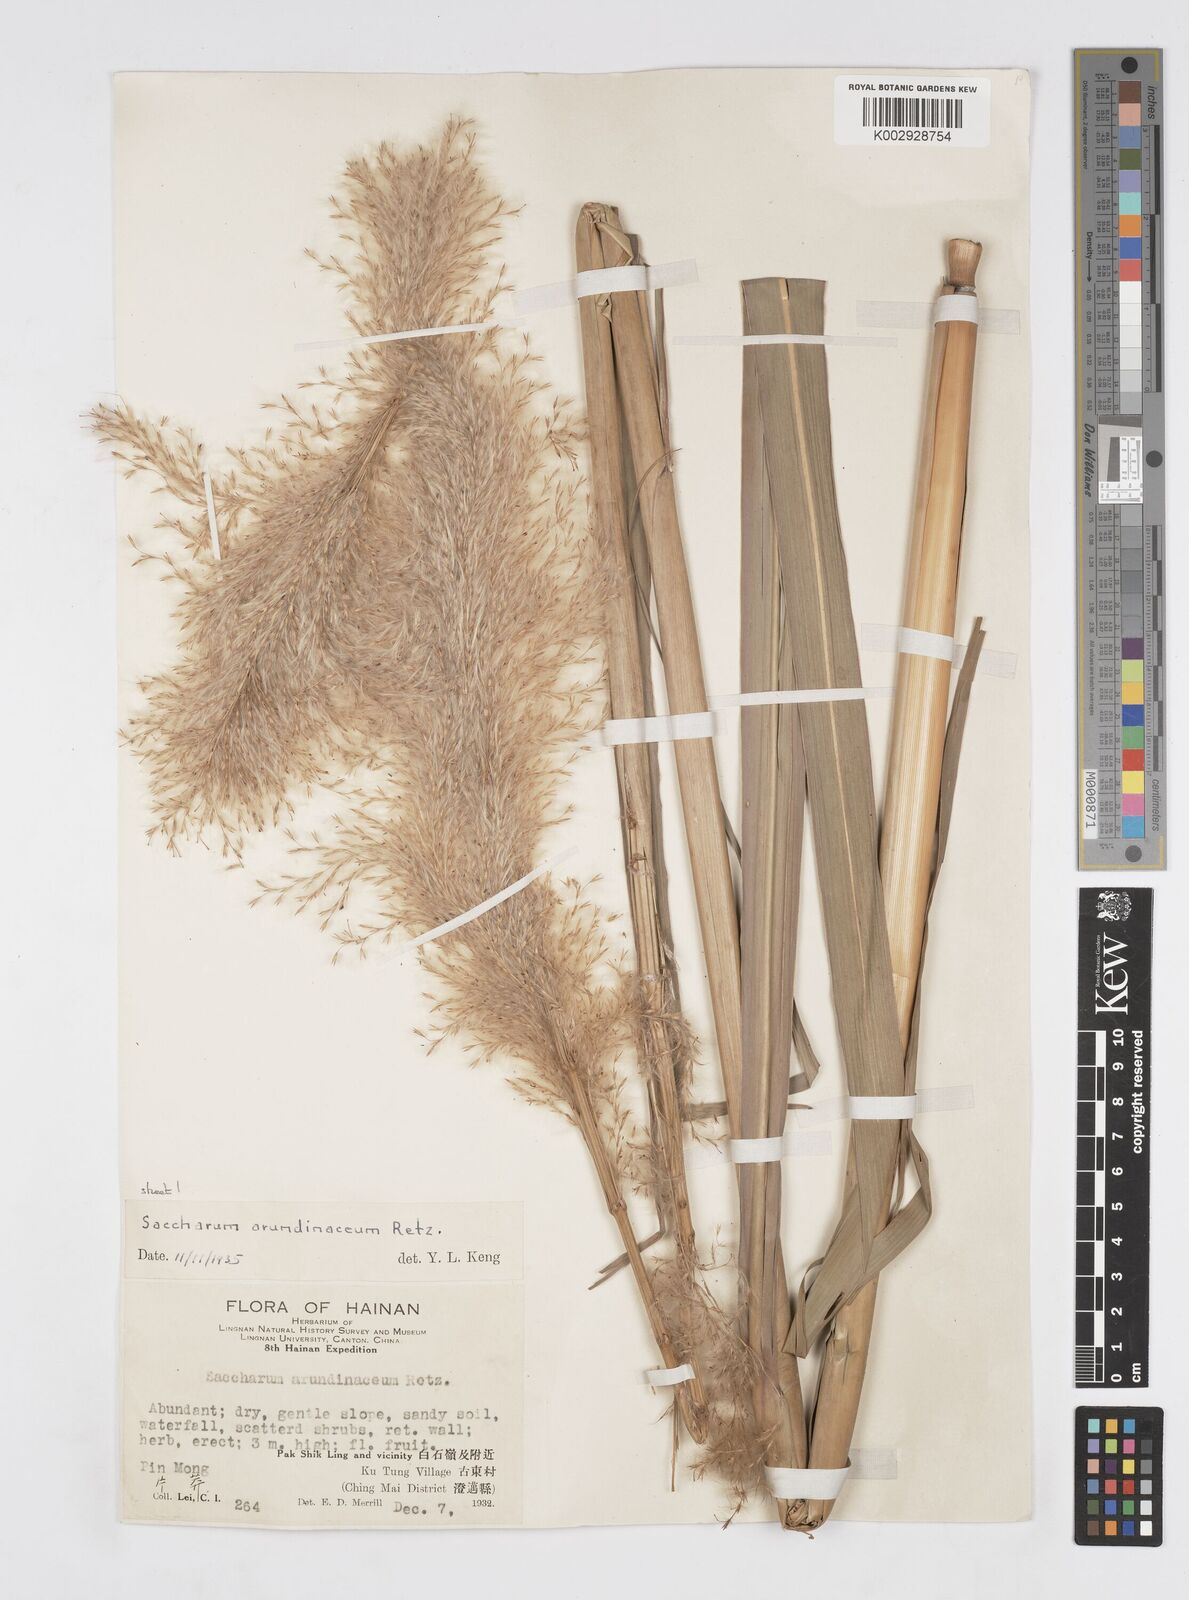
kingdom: Plantae
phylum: Tracheophyta
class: Liliopsida
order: Poales
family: Poaceae
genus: Tripidium
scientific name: Tripidium arundinaceum
